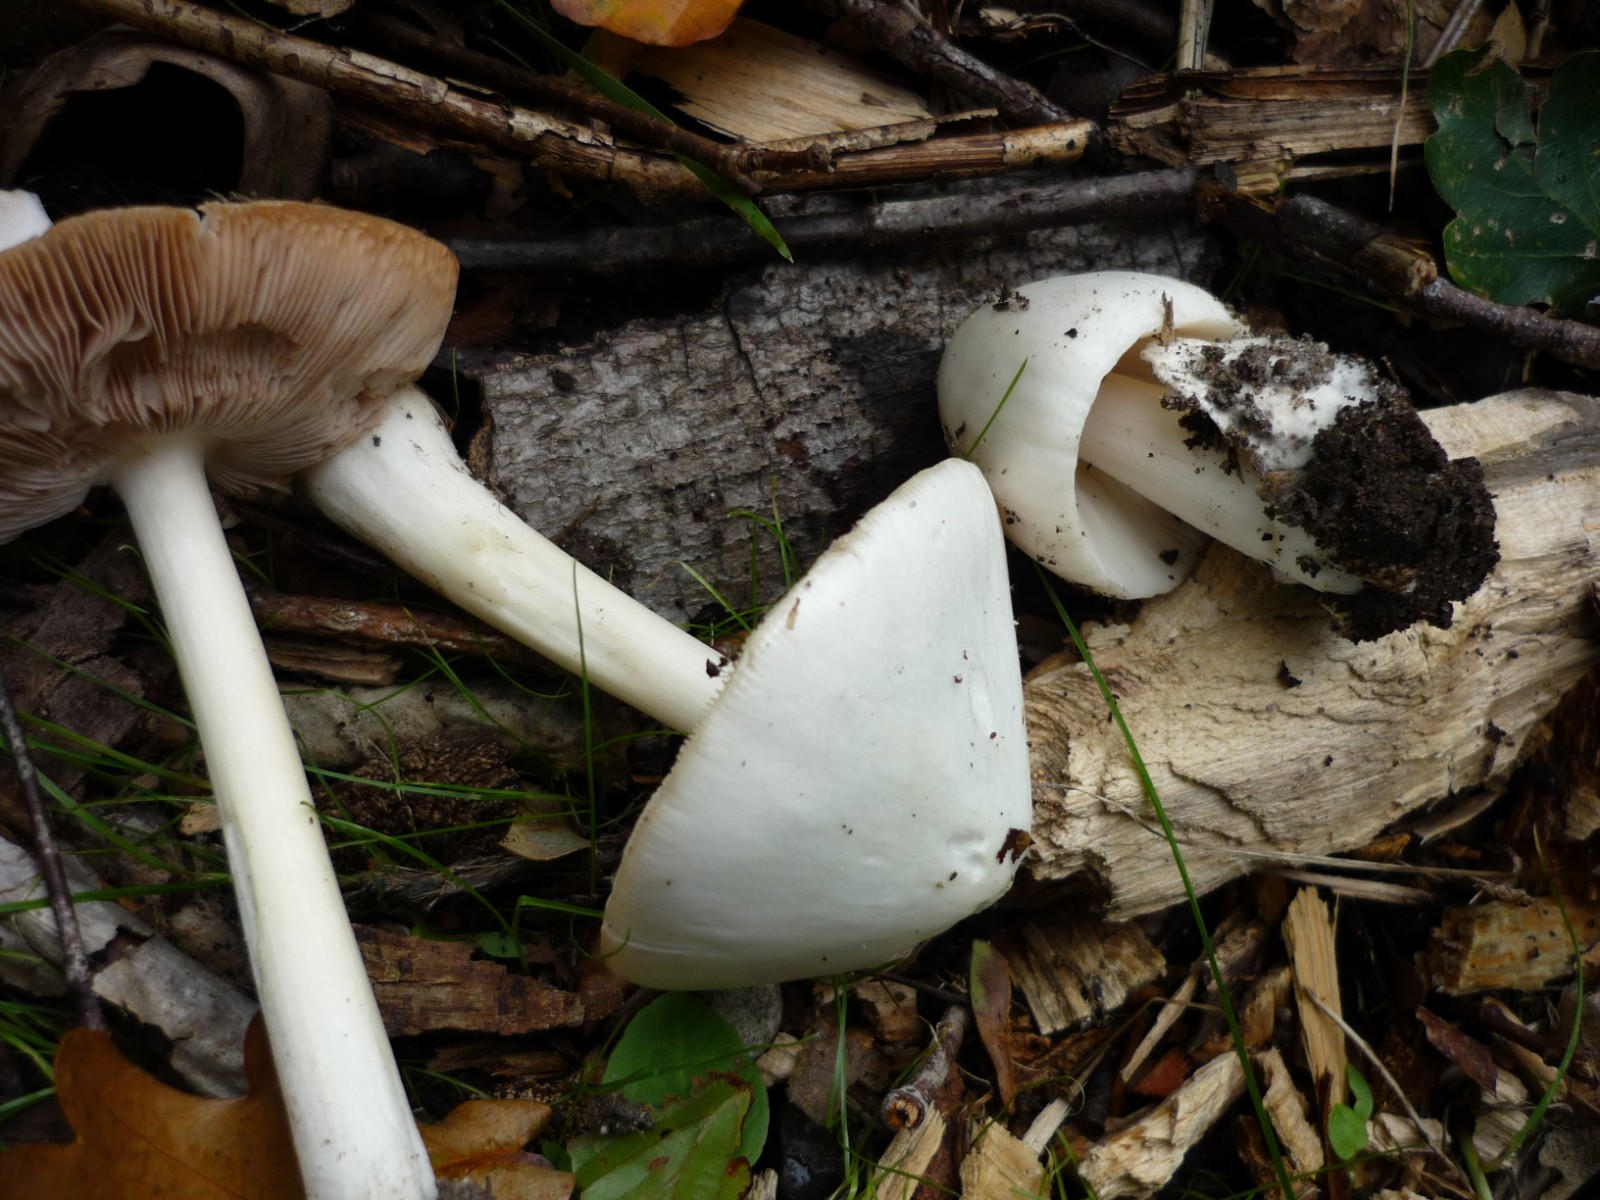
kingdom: Fungi
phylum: Basidiomycota
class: Agaricomycetes
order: Agaricales
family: Pluteaceae
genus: Volvopluteus
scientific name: Volvopluteus gloiocephalus
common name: høj posesvamp
